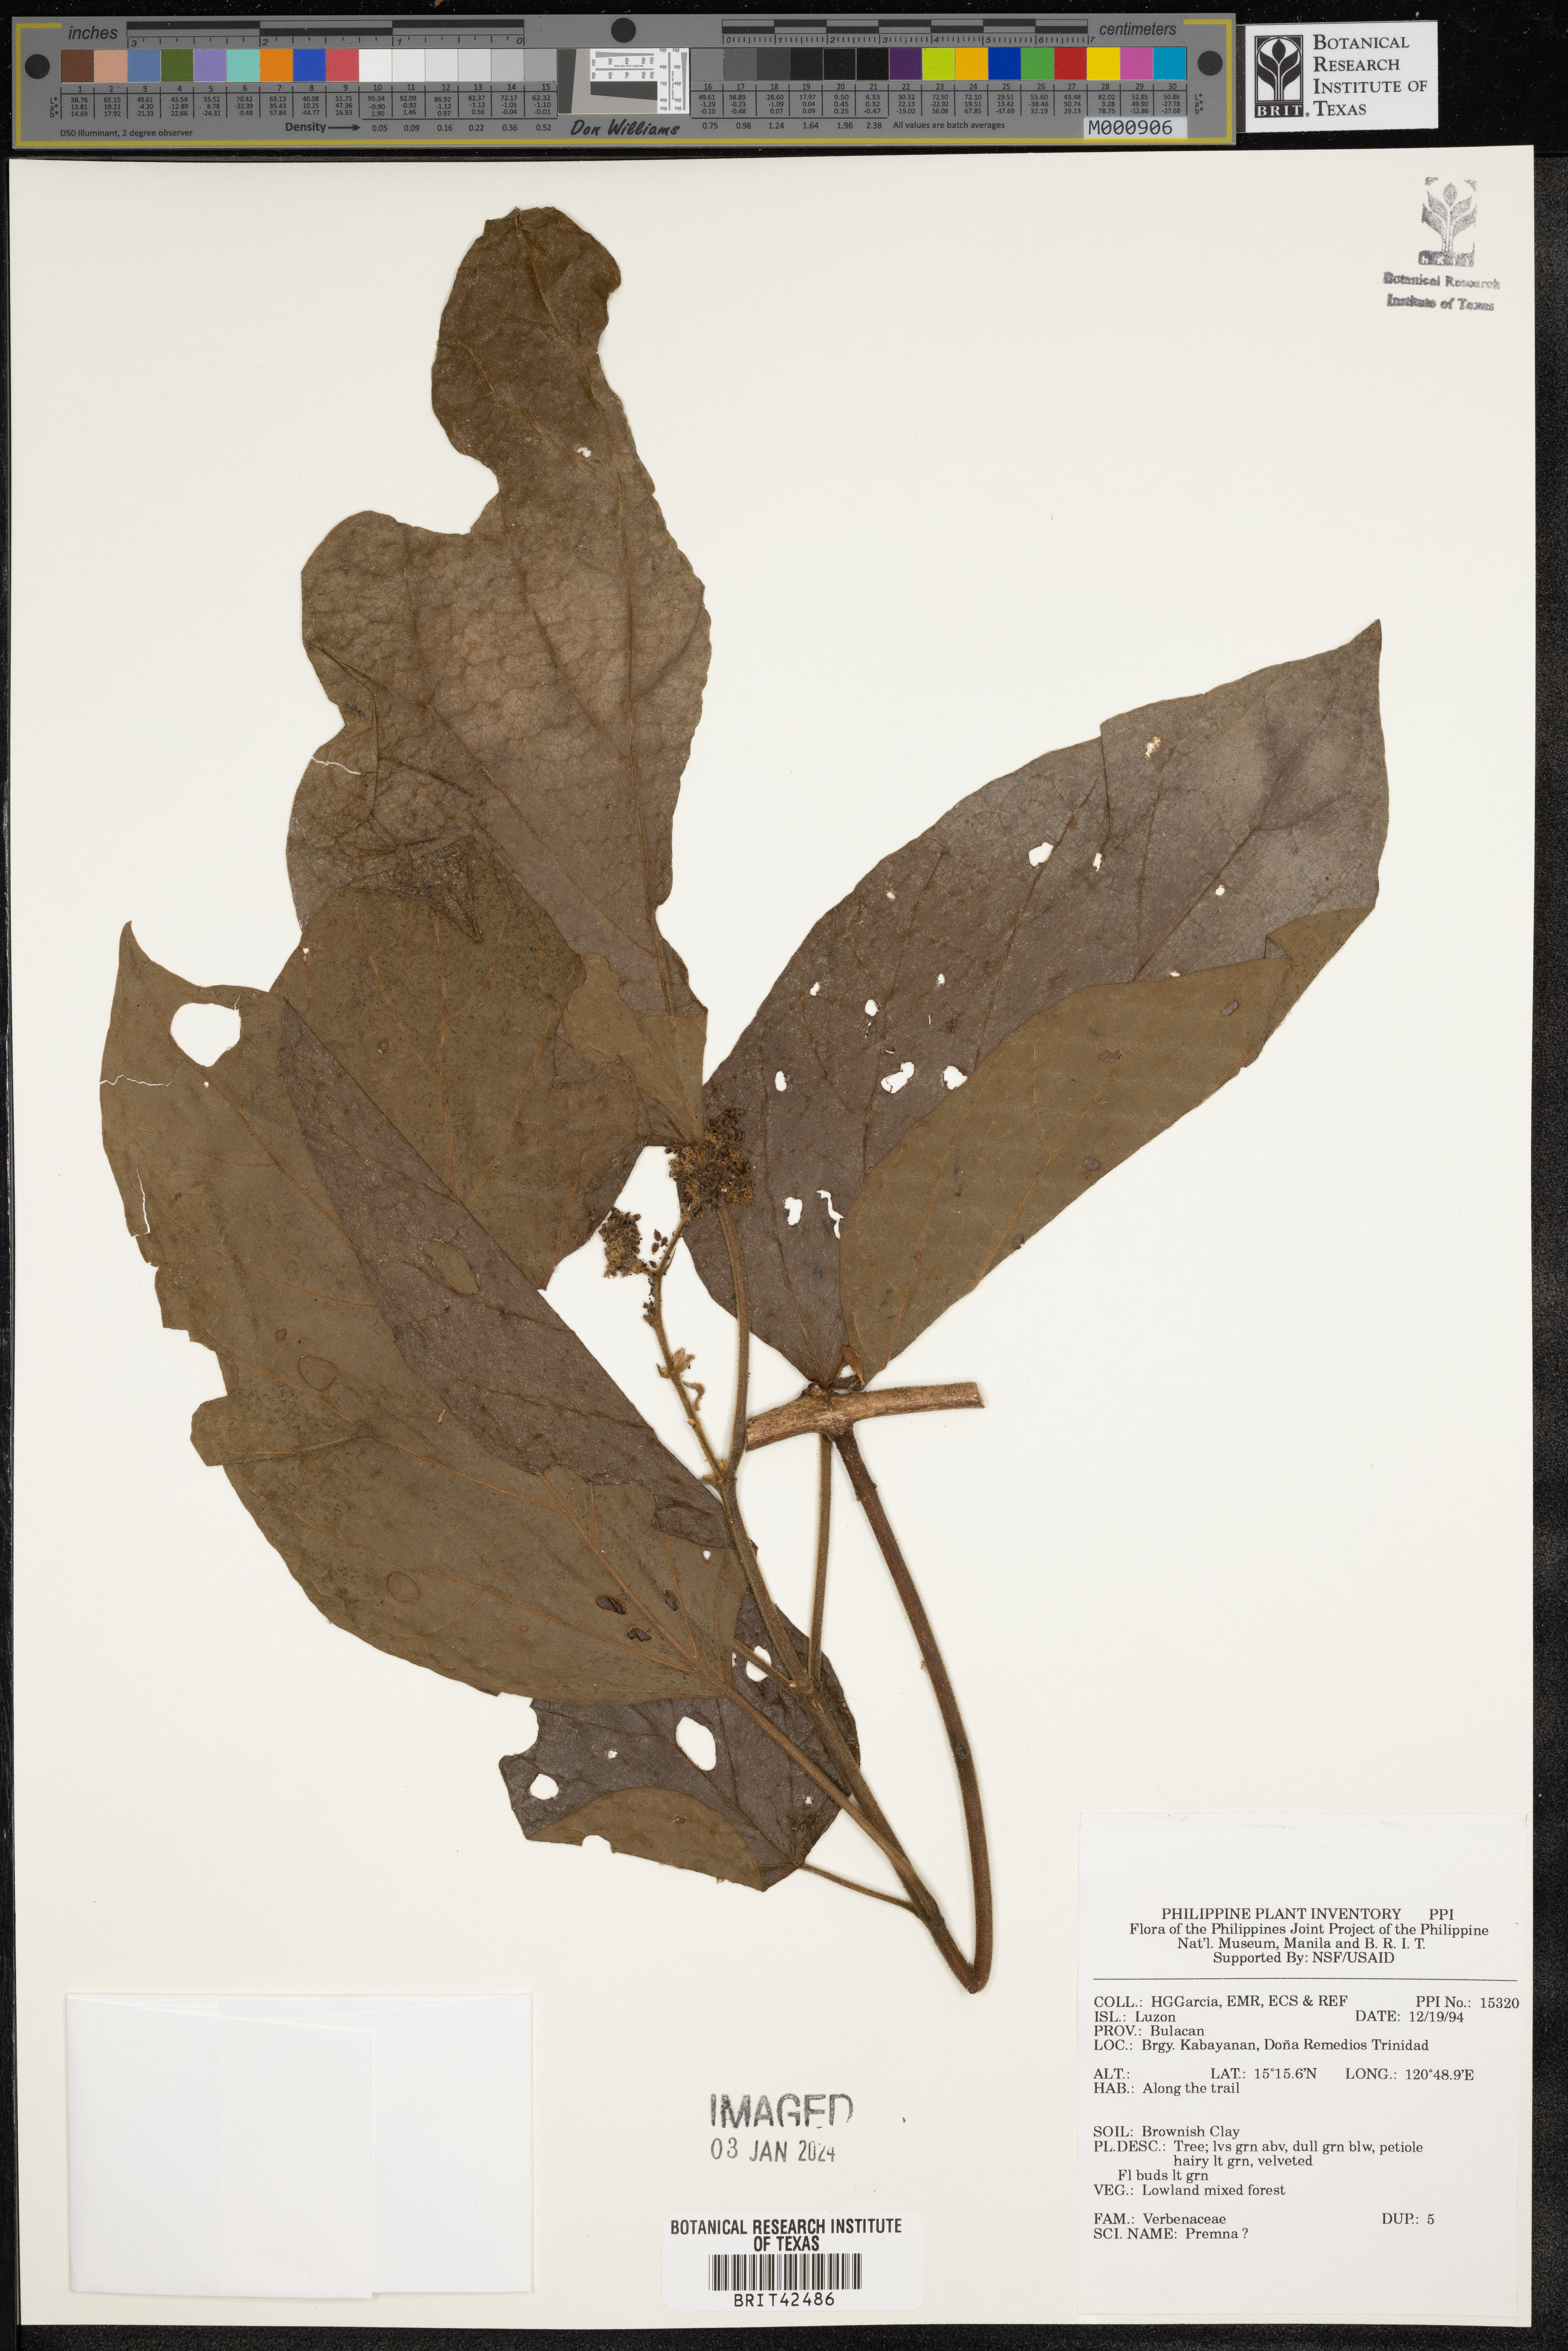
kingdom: Plantae
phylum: Tracheophyta
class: Magnoliopsida
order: Lamiales
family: Lamiaceae
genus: Premna
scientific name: Premna
